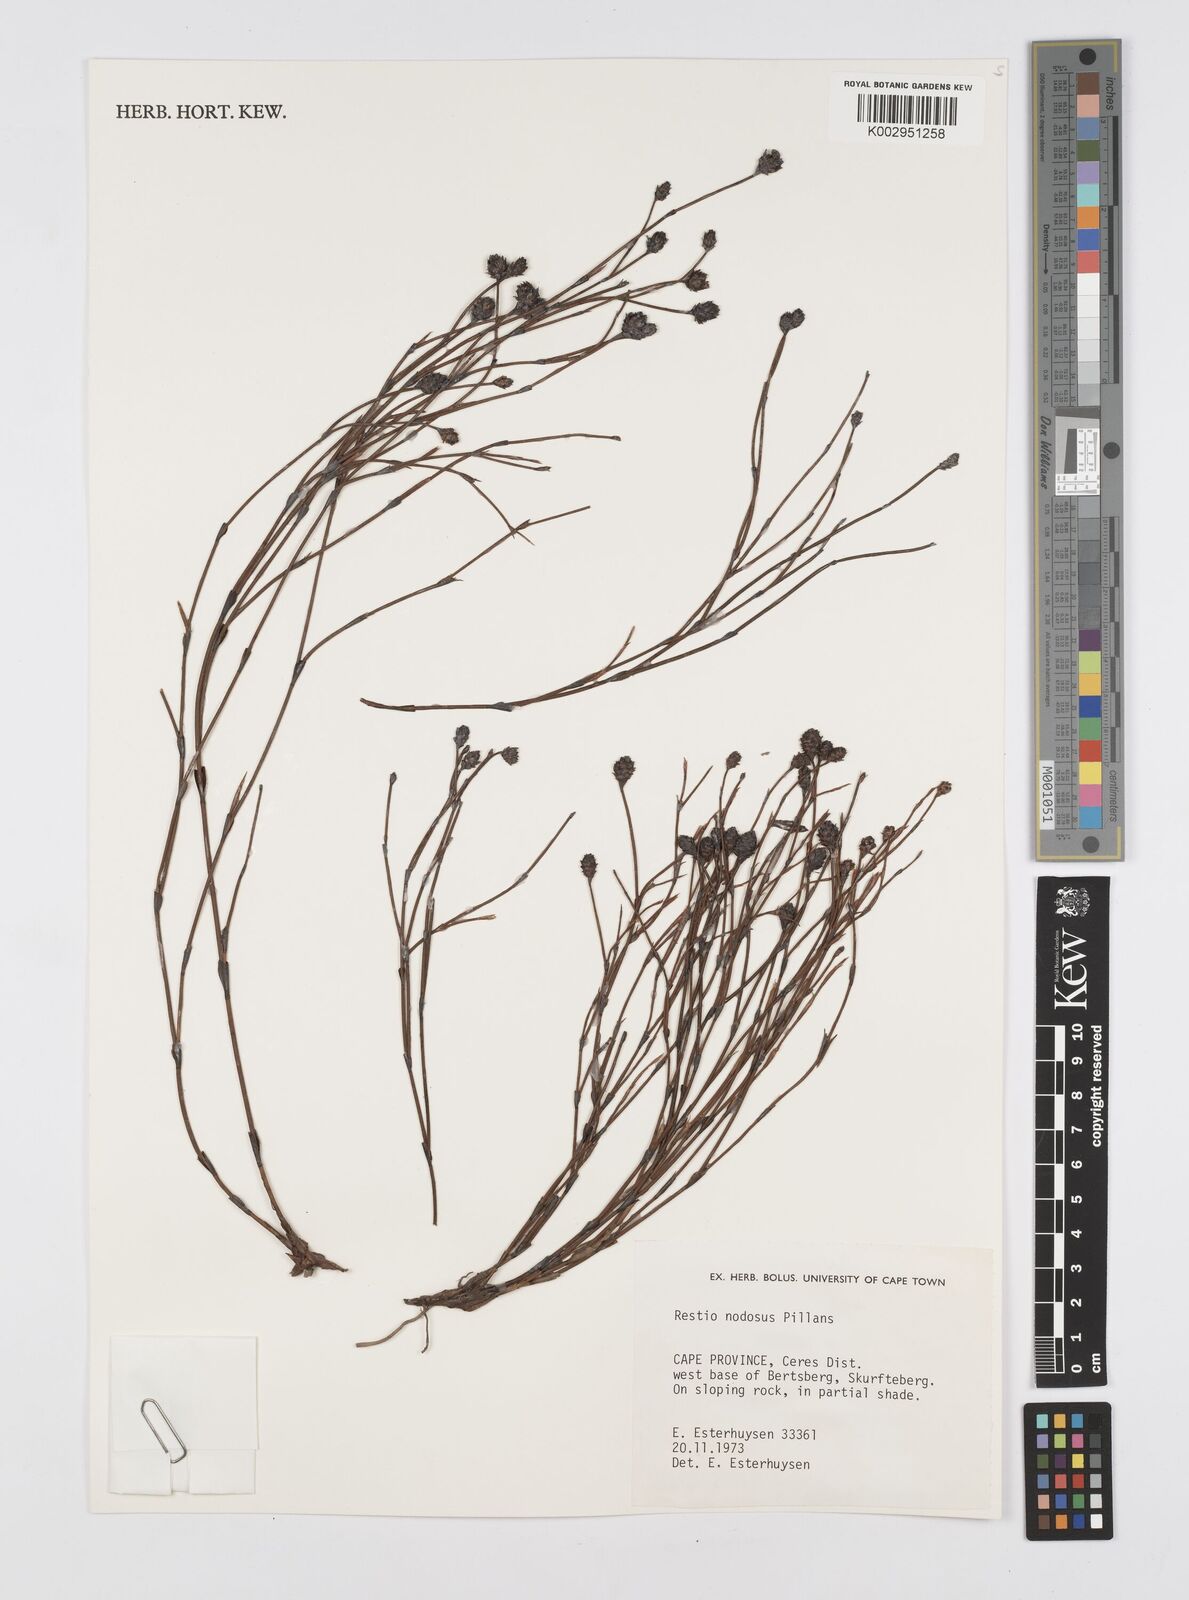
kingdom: Plantae
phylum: Tracheophyta
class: Liliopsida
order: Poales
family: Restionaceae
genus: Restio
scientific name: Restio nodosus
